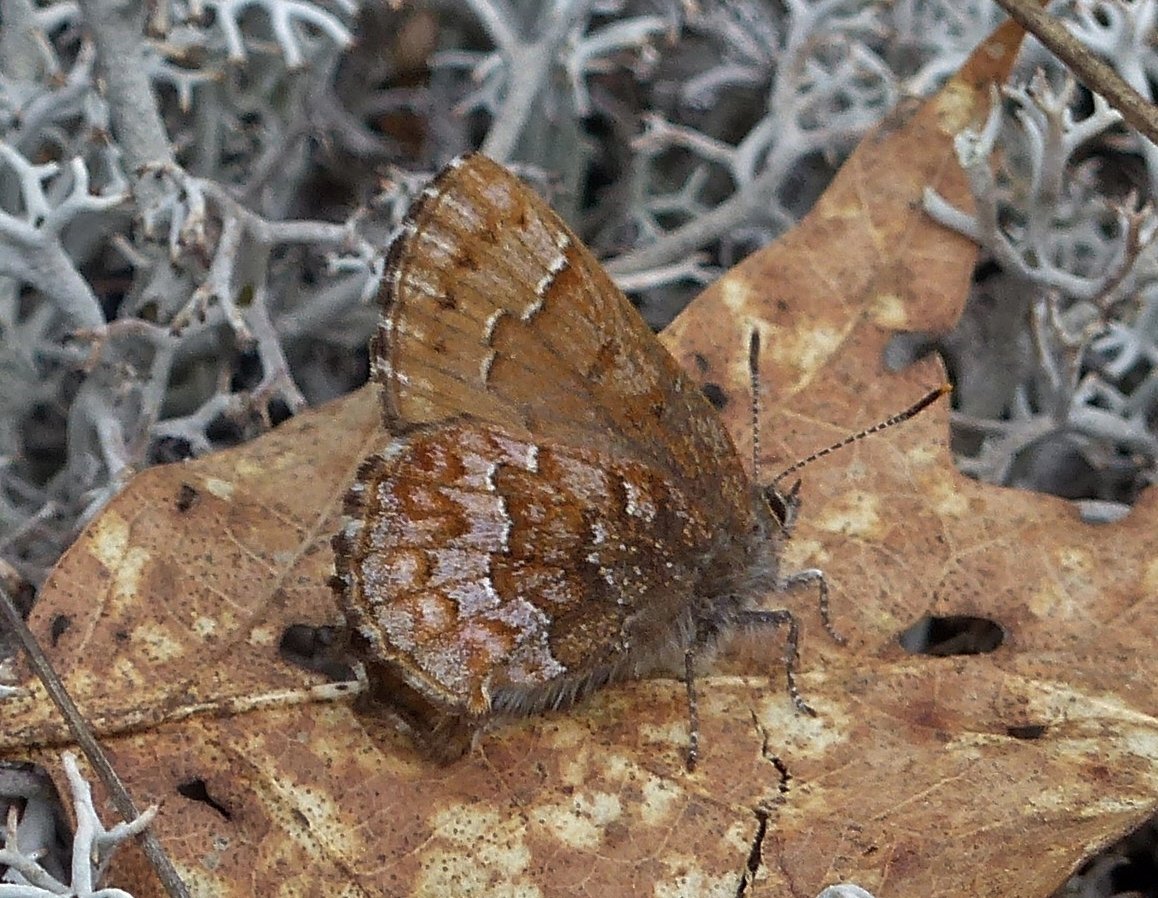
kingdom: Animalia
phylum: Arthropoda
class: Insecta
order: Lepidoptera
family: Lycaenidae
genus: Incisalia
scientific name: Incisalia niphon
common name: Eastern Pine Elfin
